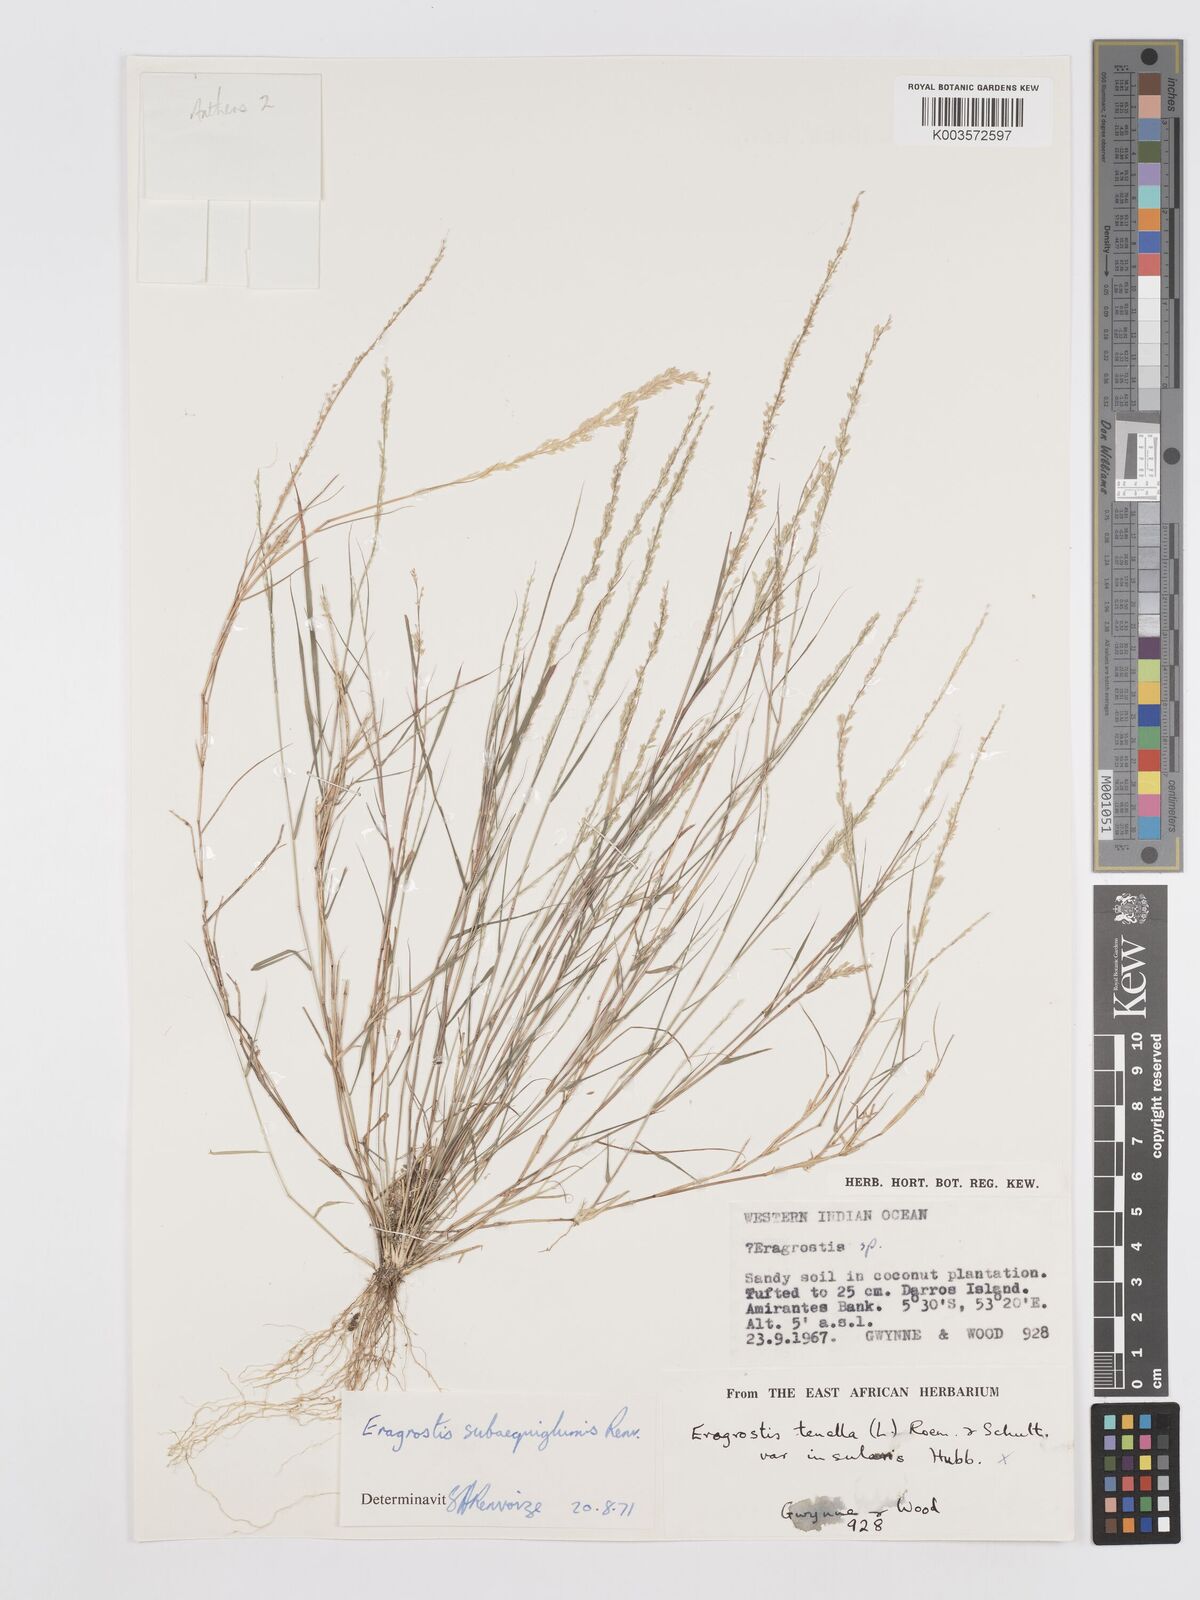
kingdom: Plantae
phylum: Tracheophyta
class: Liliopsida
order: Poales
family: Poaceae
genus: Eragrostis
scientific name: Eragrostis subaequiglumis
